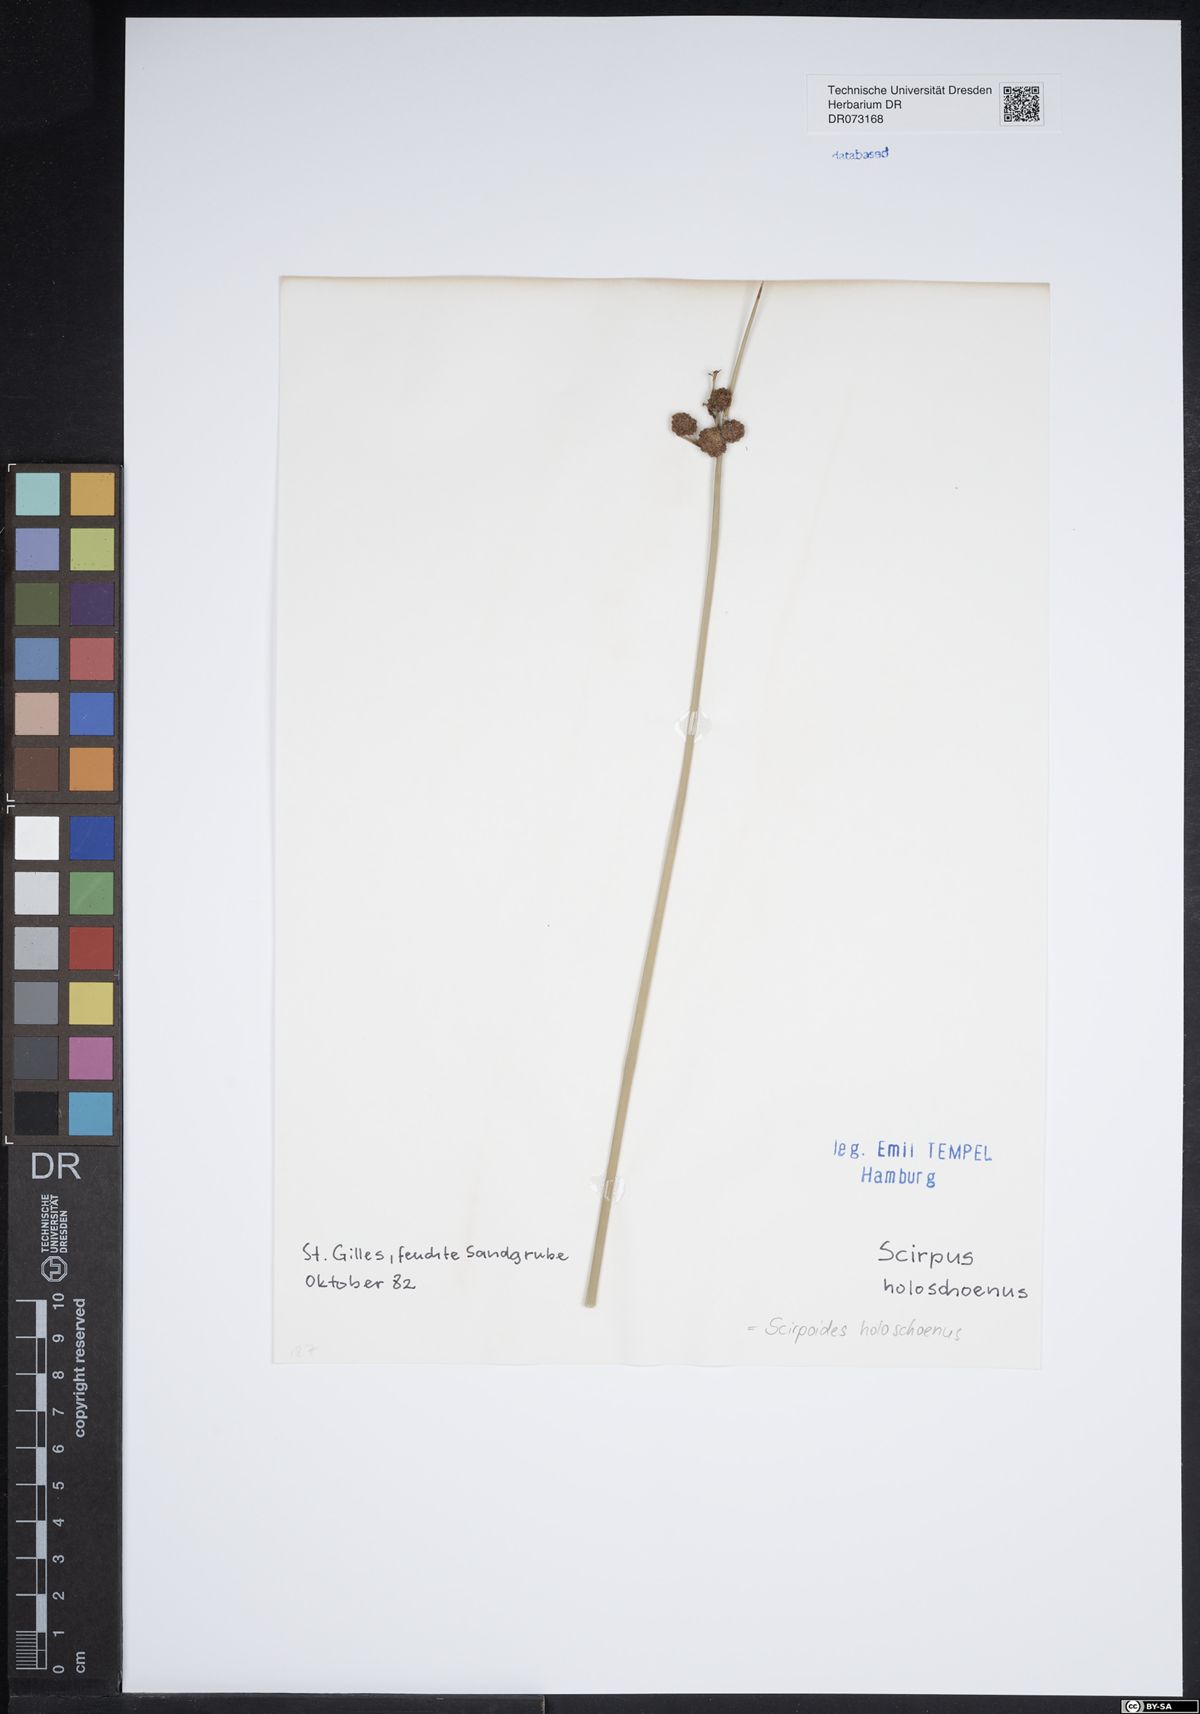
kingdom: Plantae
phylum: Tracheophyta
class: Liliopsida
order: Poales
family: Cyperaceae
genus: Scirpoides
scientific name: Scirpoides holoschoenus
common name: Round-headed club-rush
